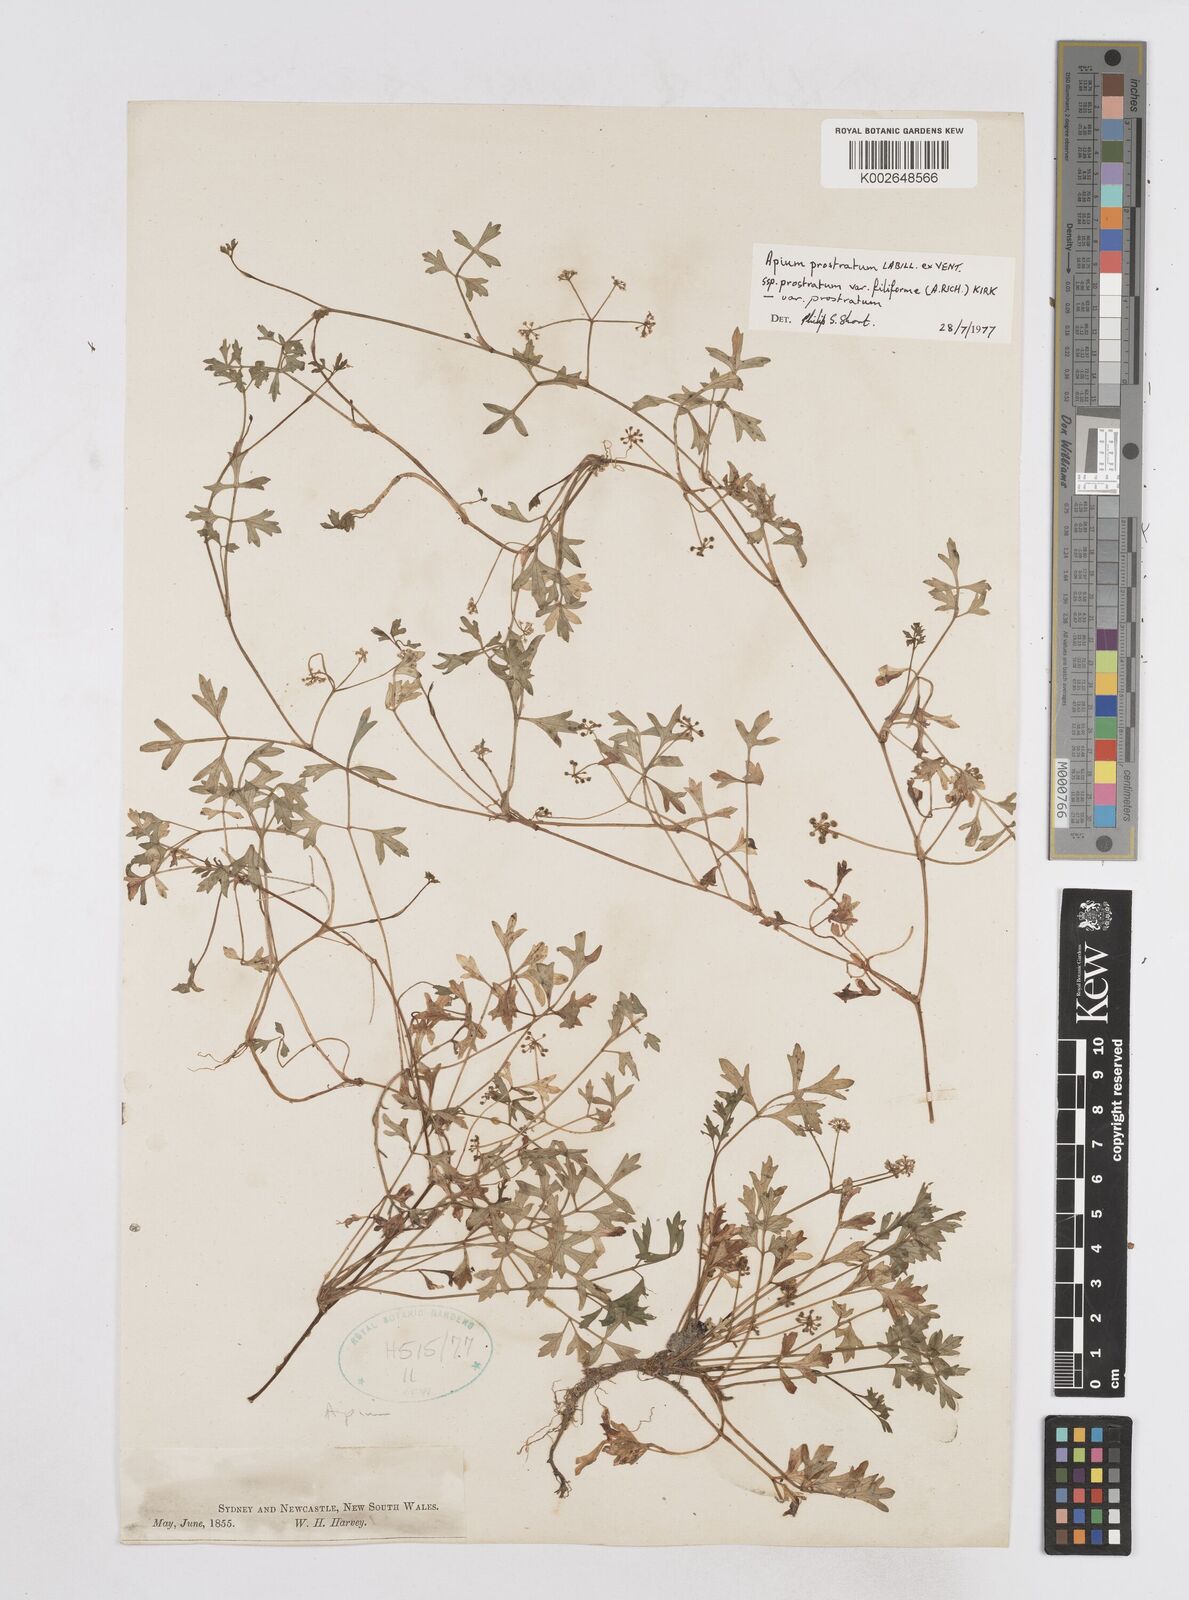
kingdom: Plantae
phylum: Tracheophyta
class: Magnoliopsida
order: Apiales
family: Apiaceae
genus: Apium
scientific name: Apium prostratum
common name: Prostrate marshwort
